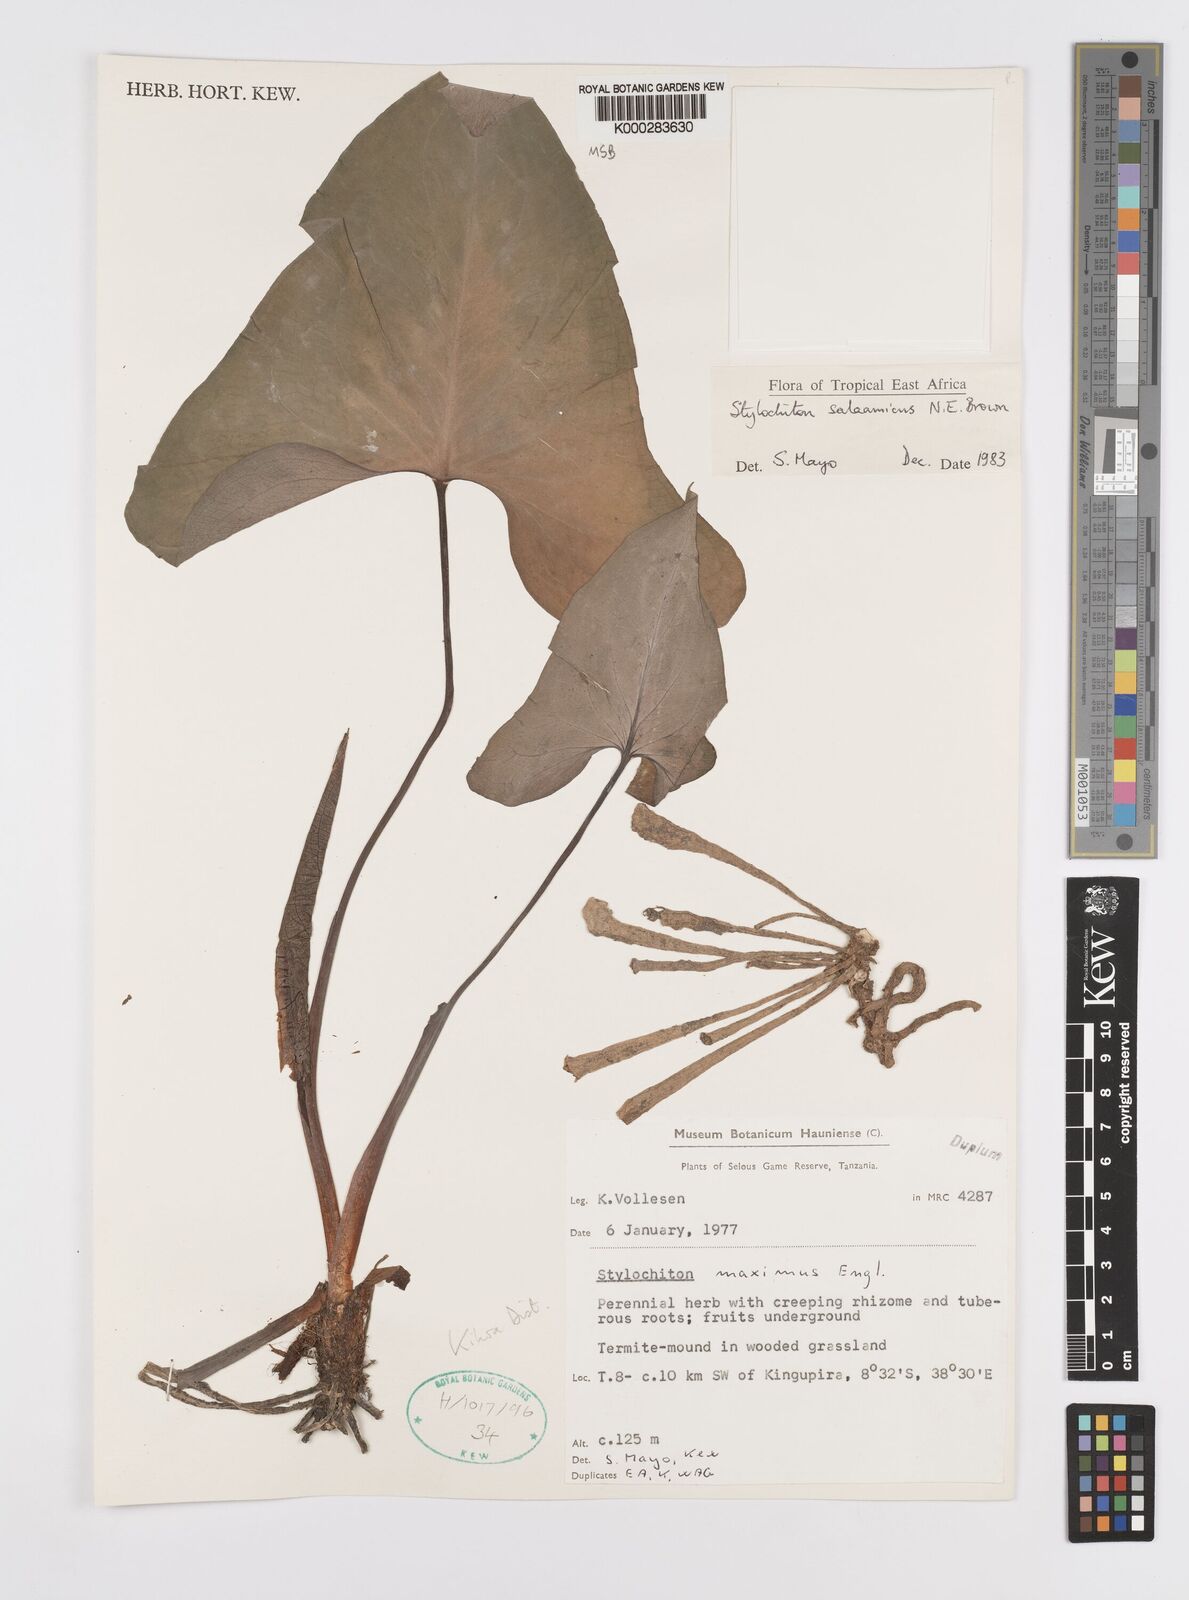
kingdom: Plantae
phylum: Tracheophyta
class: Liliopsida
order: Alismatales
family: Araceae
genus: Stylochaeton
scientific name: Stylochaeton salaamicum
